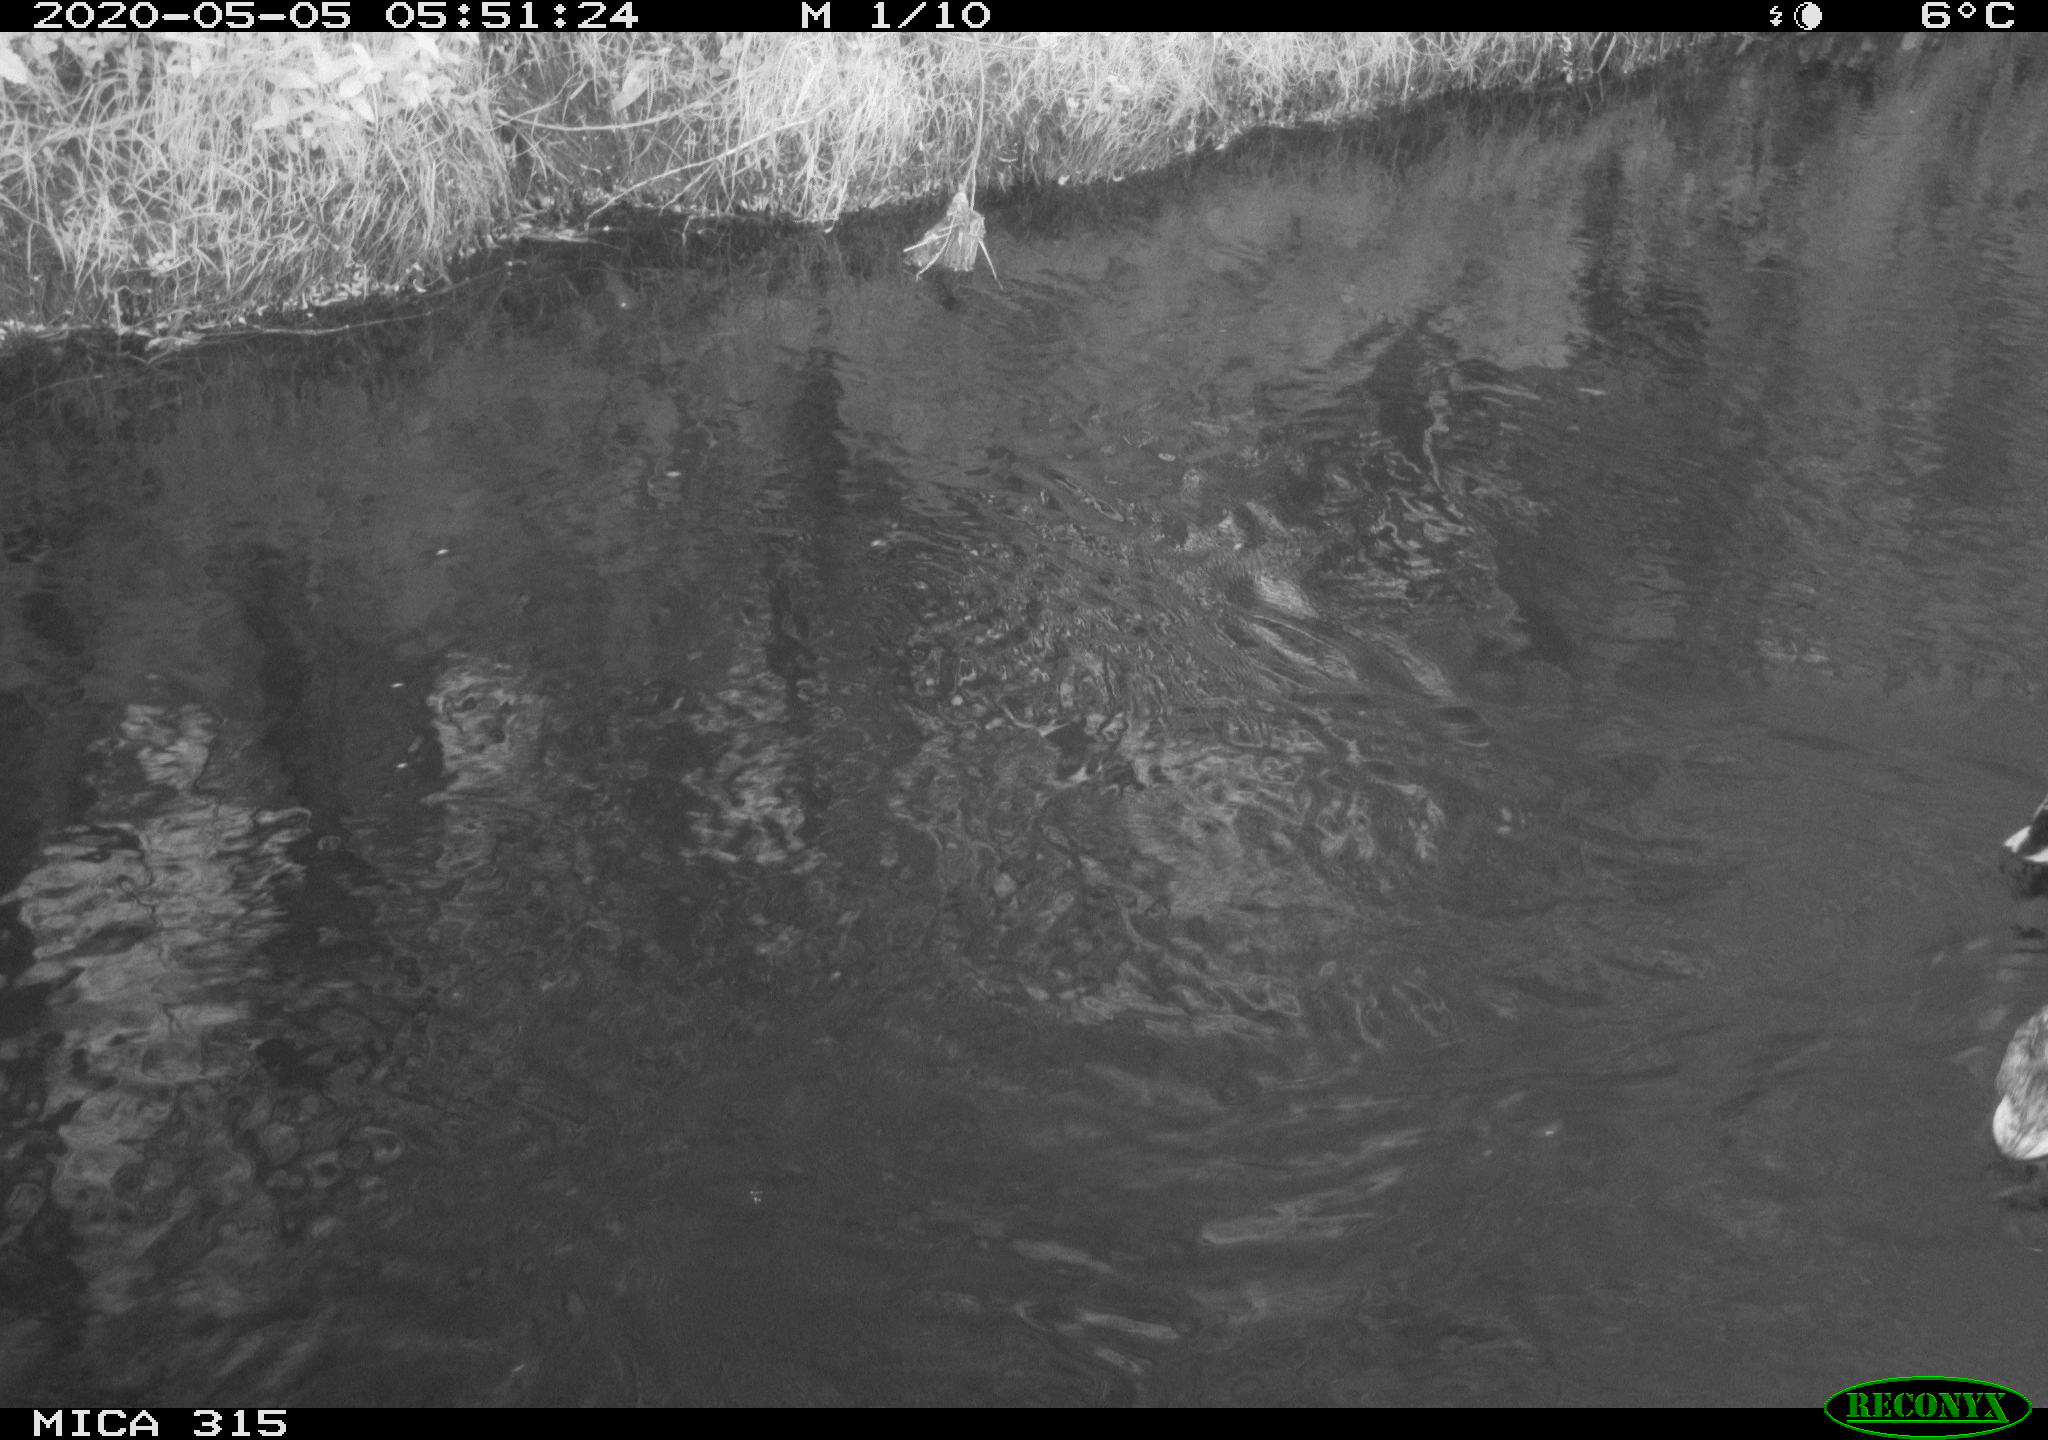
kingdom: Animalia
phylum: Chordata
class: Aves
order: Anseriformes
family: Anatidae
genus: Anas
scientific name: Anas platyrhynchos
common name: Mallard
